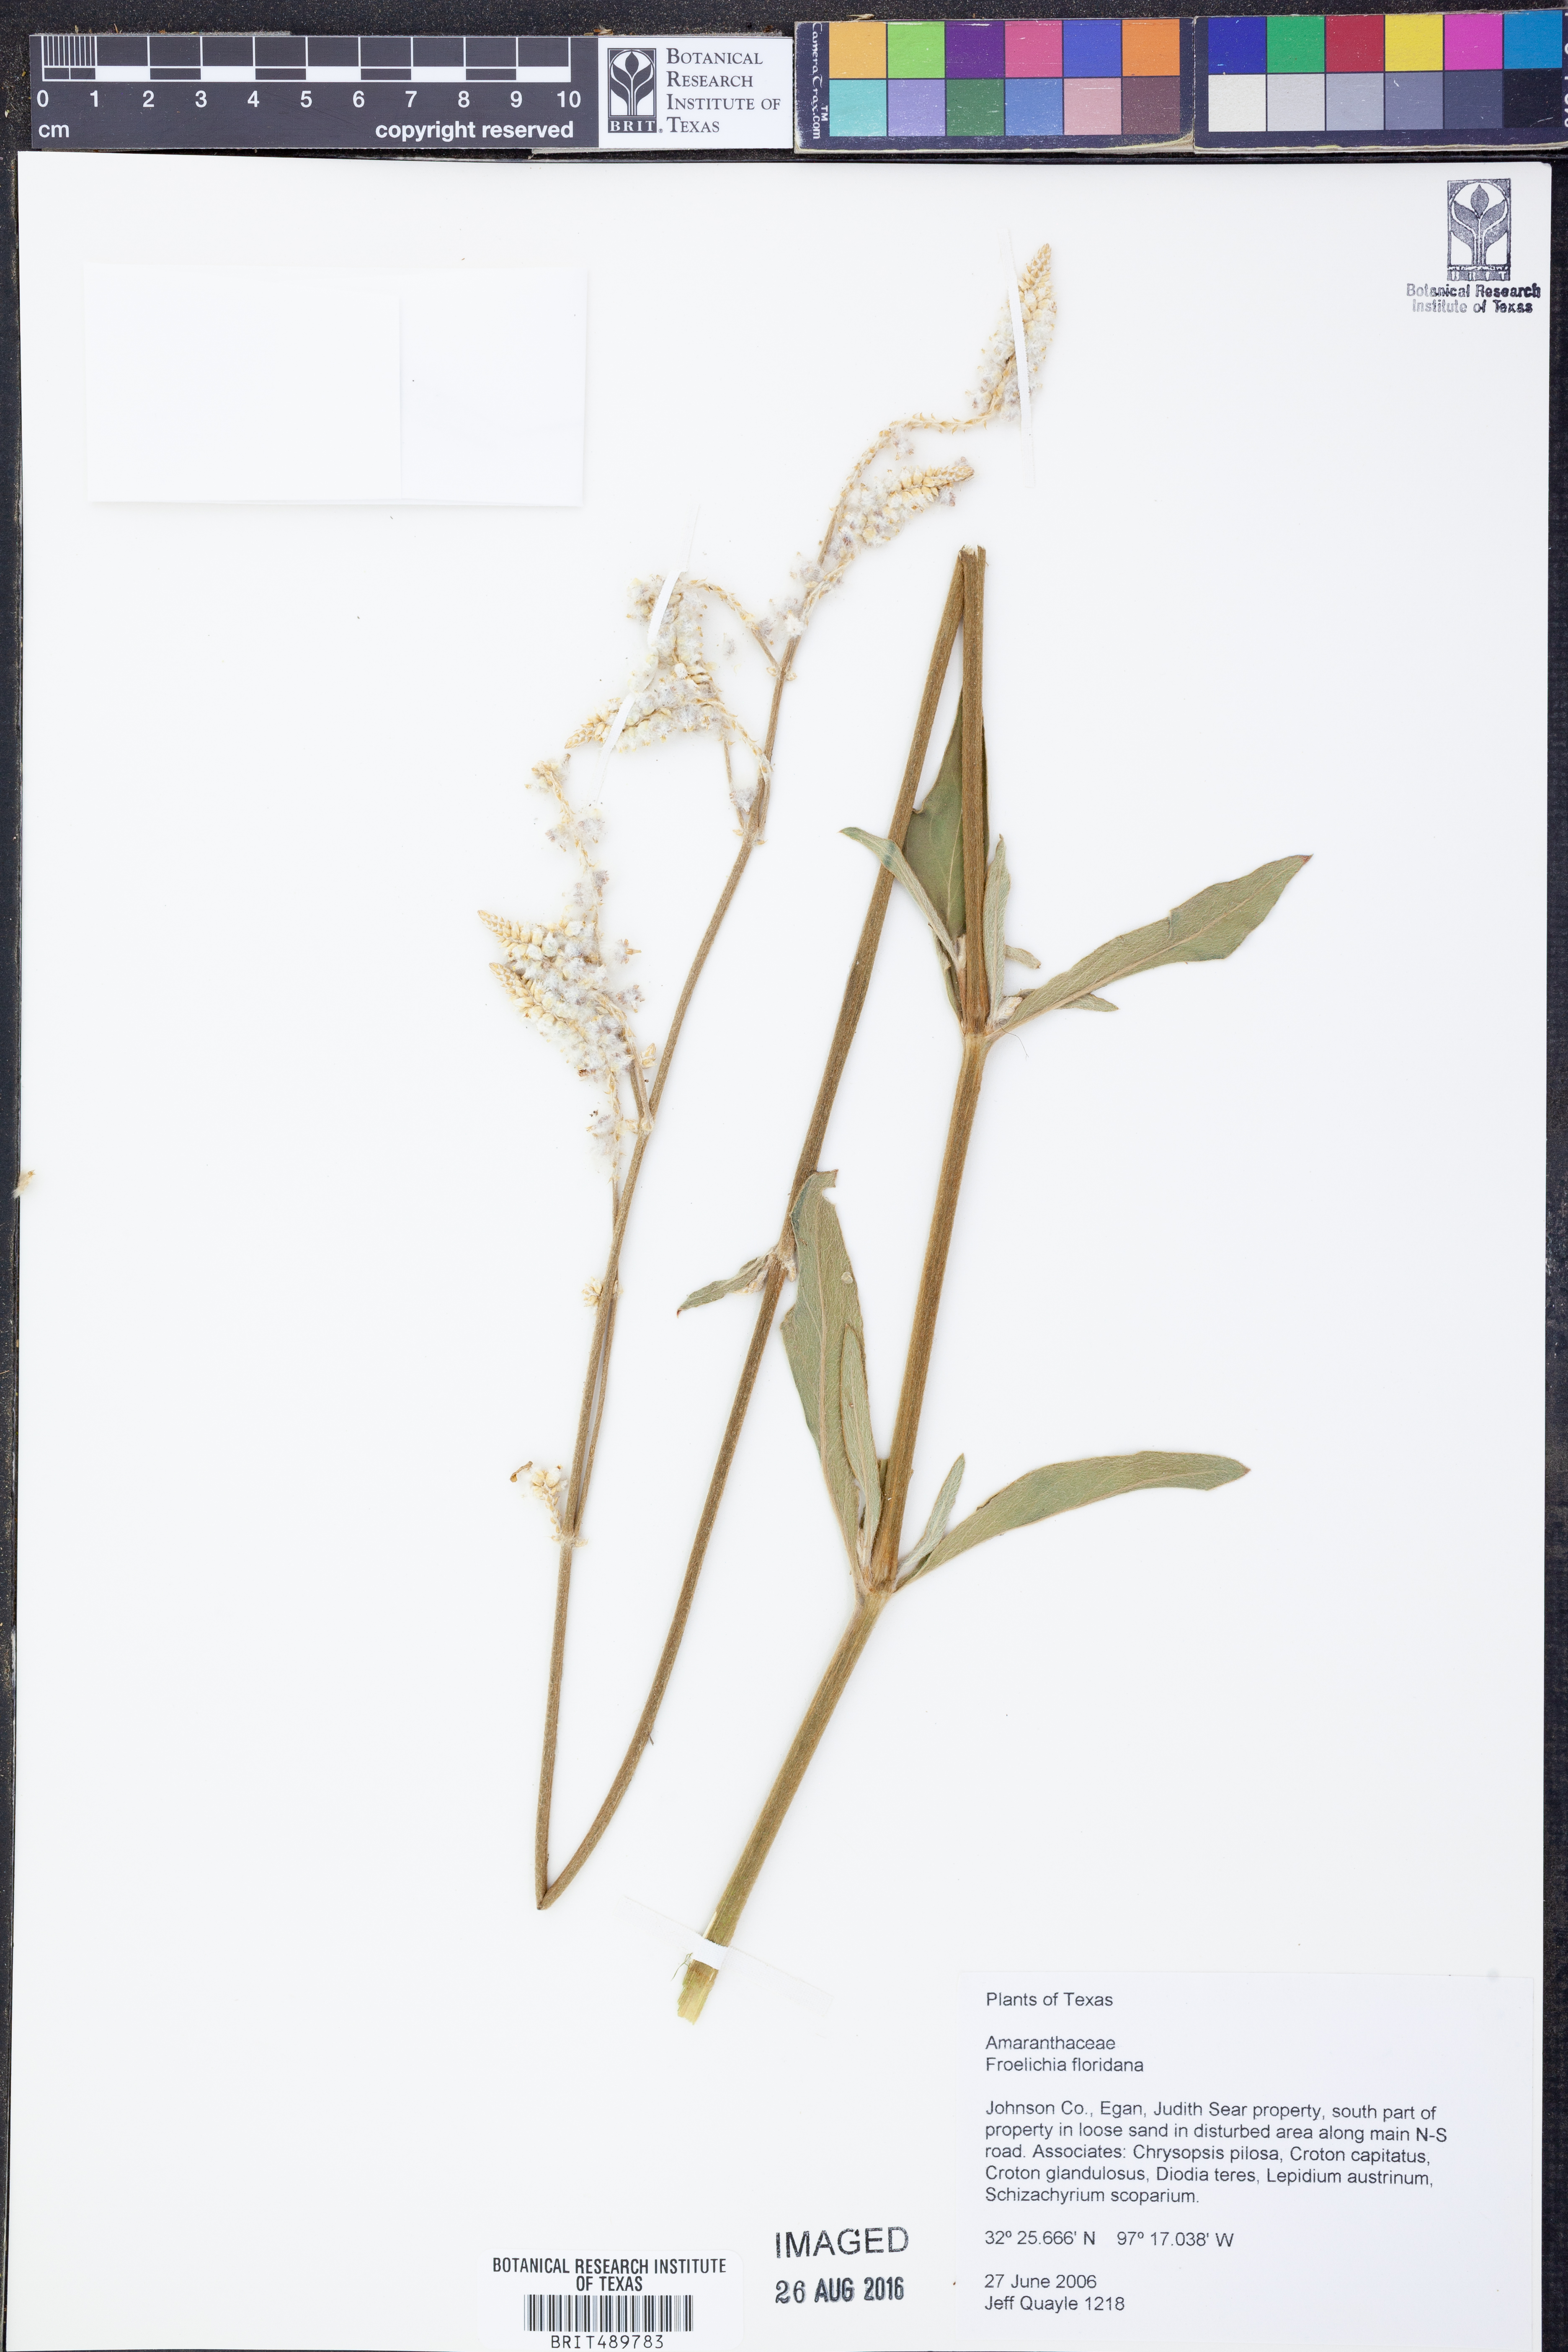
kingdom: Plantae
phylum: Tracheophyta
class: Magnoliopsida
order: Caryophyllales
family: Amaranthaceae
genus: Froelichia
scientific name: Froelichia floridana
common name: Florida snake-cotton
